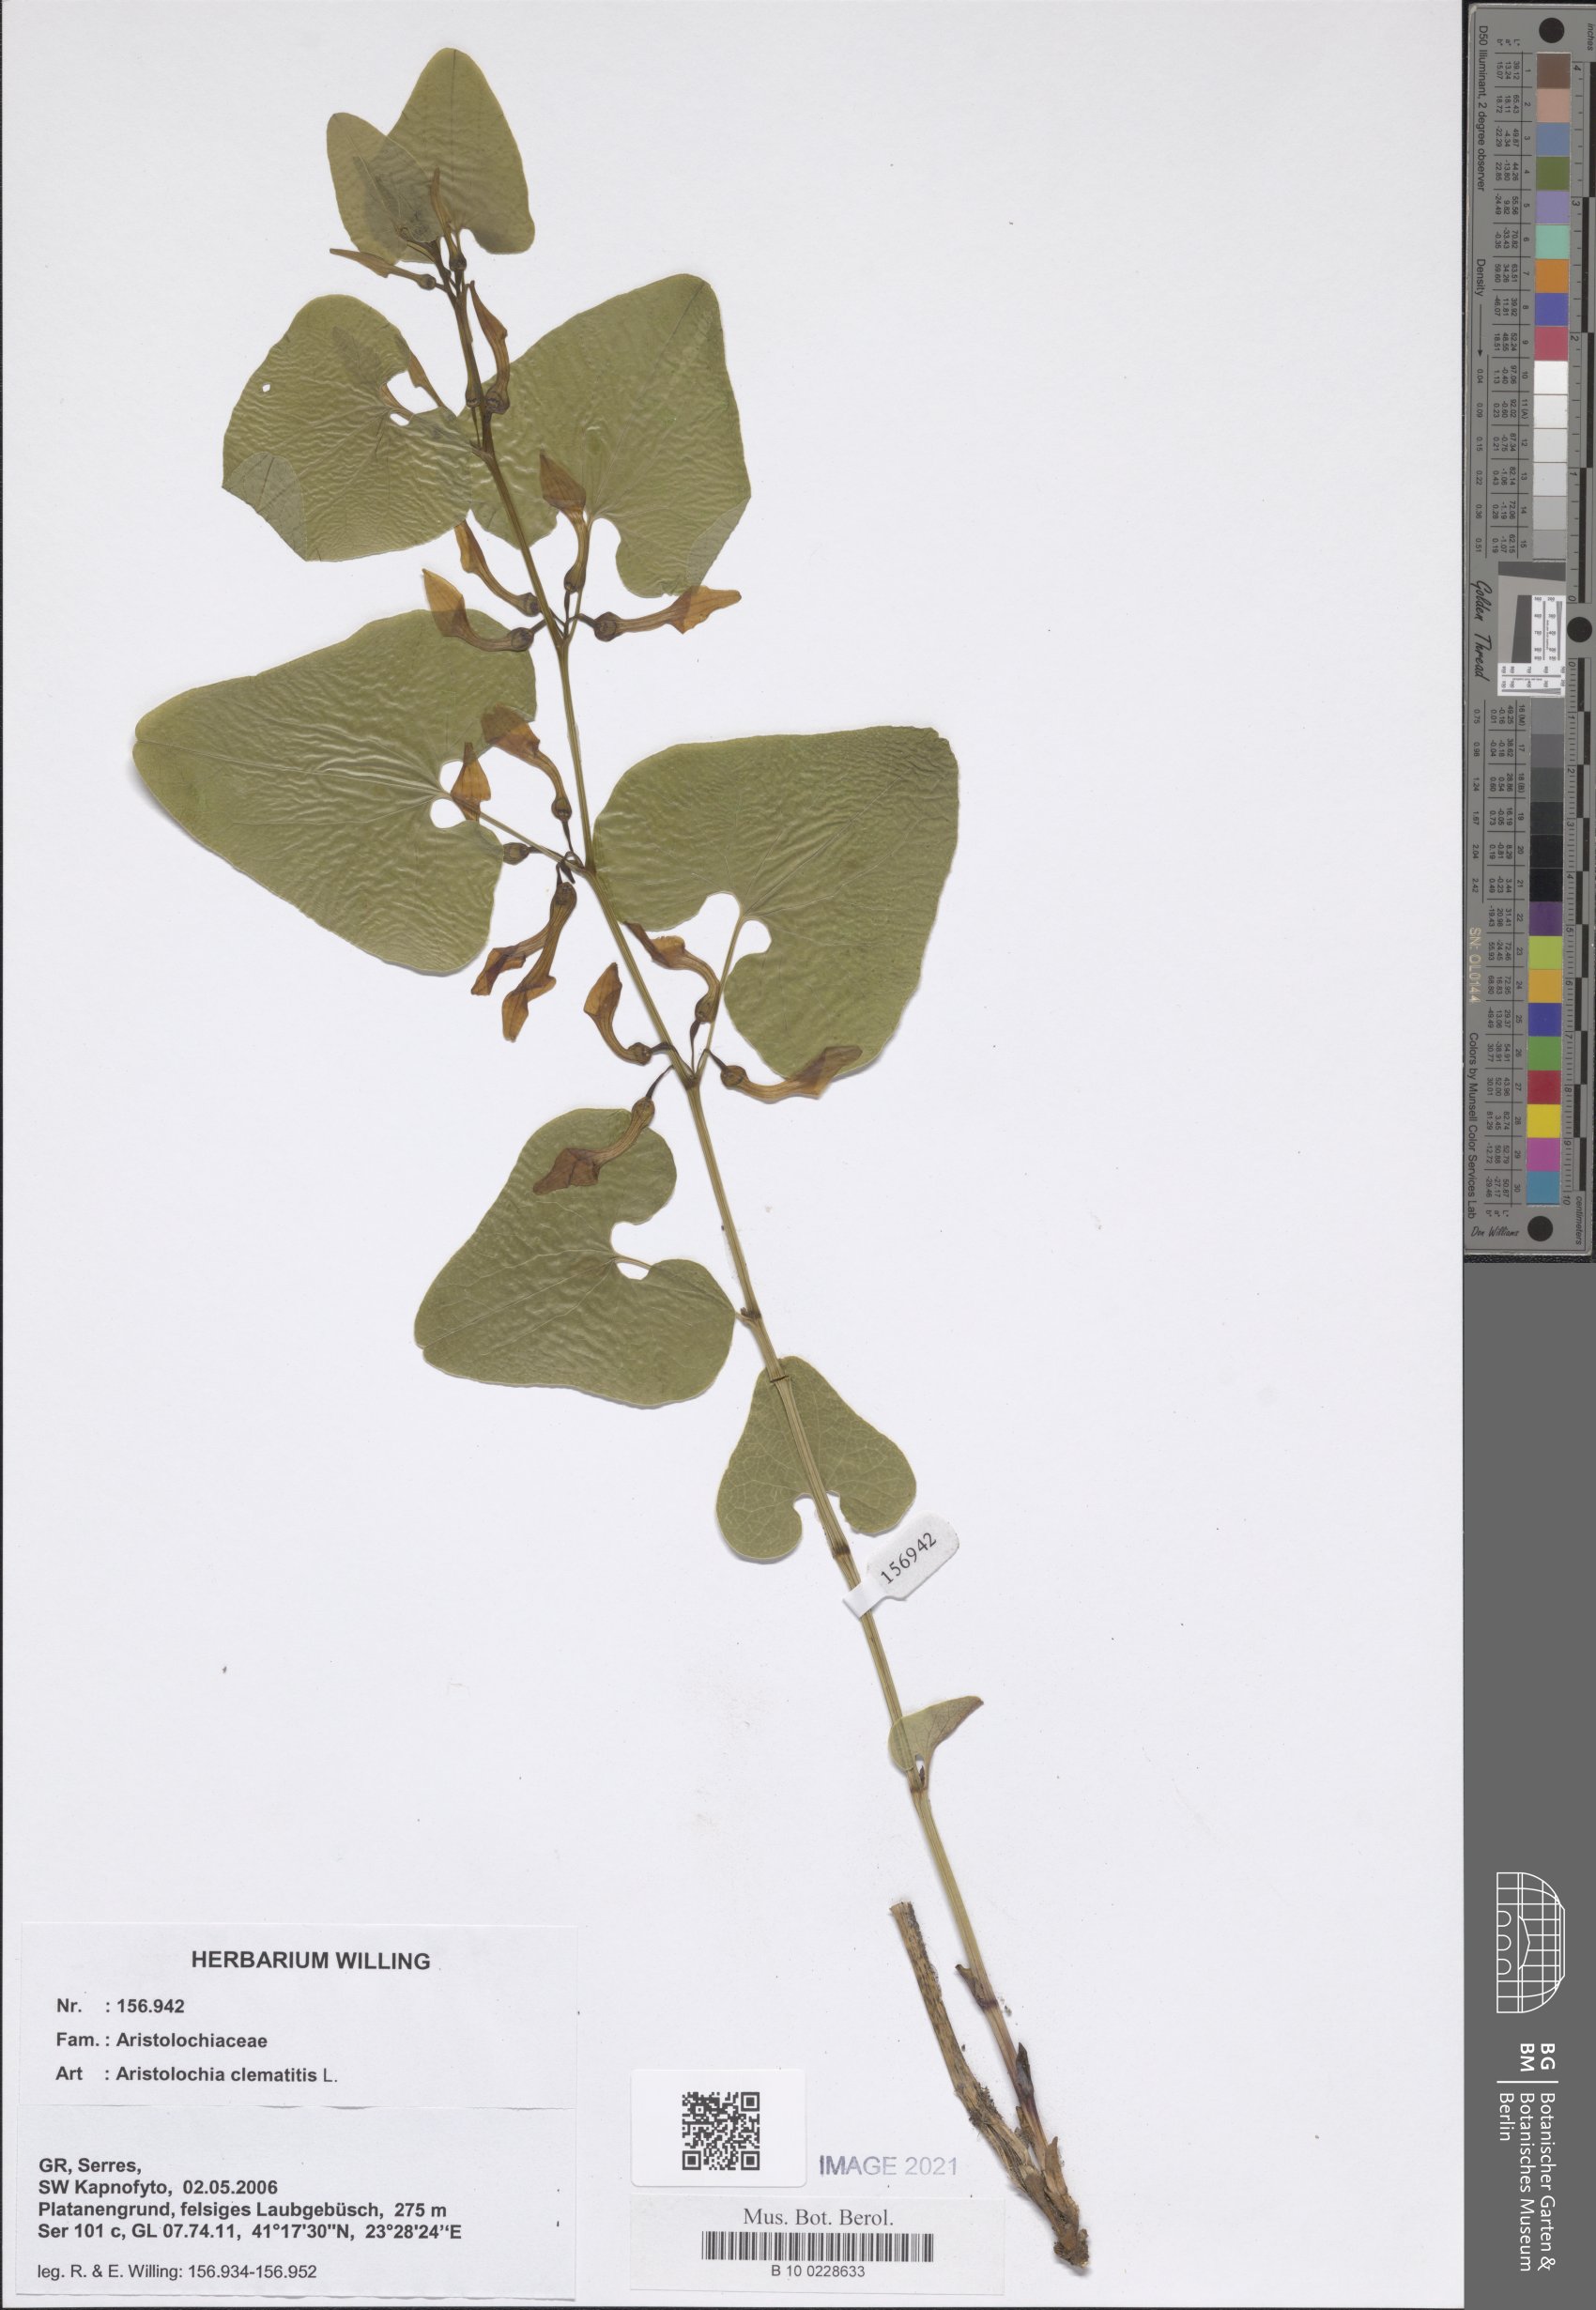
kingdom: Plantae
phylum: Tracheophyta
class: Magnoliopsida
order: Piperales
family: Aristolochiaceae
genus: Aristolochia
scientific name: Aristolochia clematitis
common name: Birthwort
